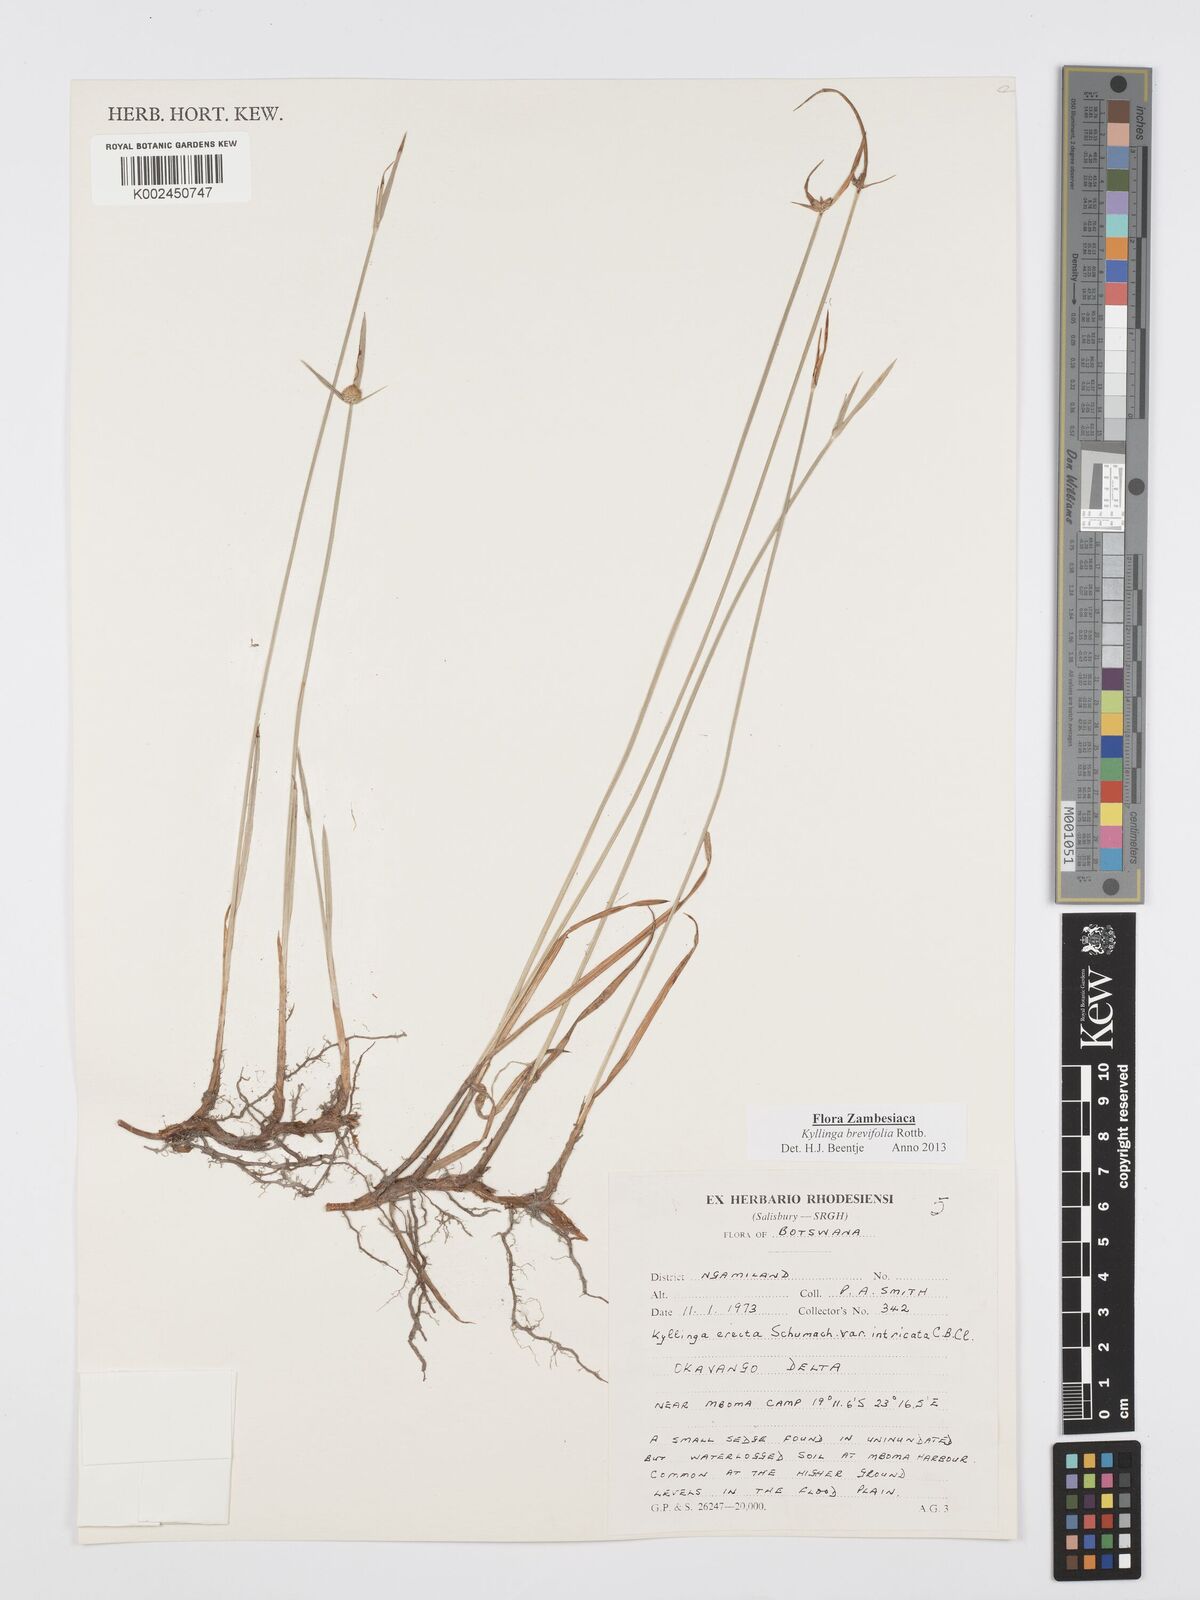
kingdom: Plantae
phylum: Tracheophyta
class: Liliopsida
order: Poales
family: Cyperaceae
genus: Cyperus
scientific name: Cyperus brevifolius
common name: Globe kyllinga
